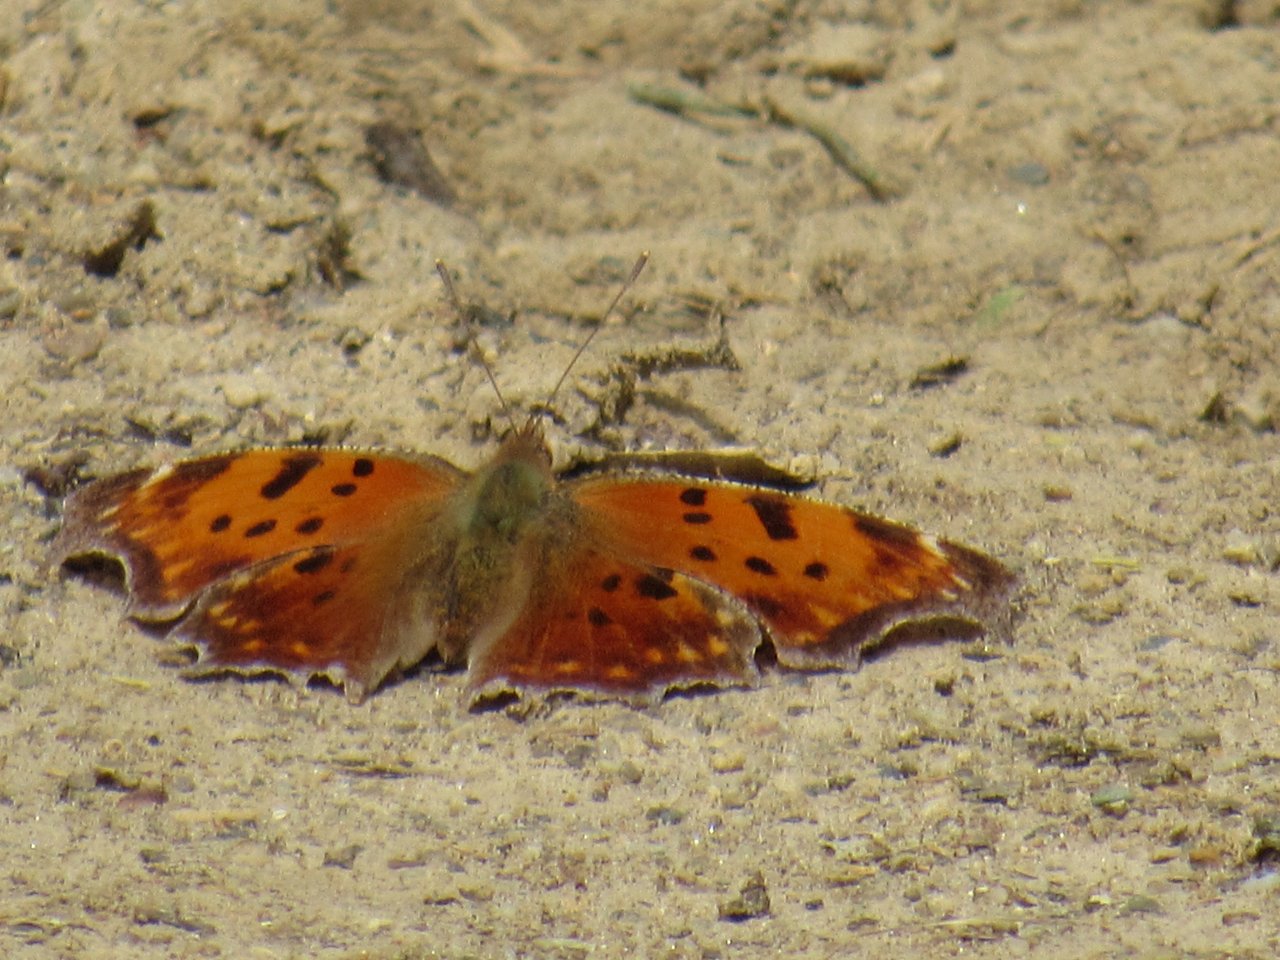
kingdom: Animalia
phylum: Arthropoda
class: Insecta
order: Lepidoptera
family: Nymphalidae
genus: Polygonia
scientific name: Polygonia comma
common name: Eastern Comma
